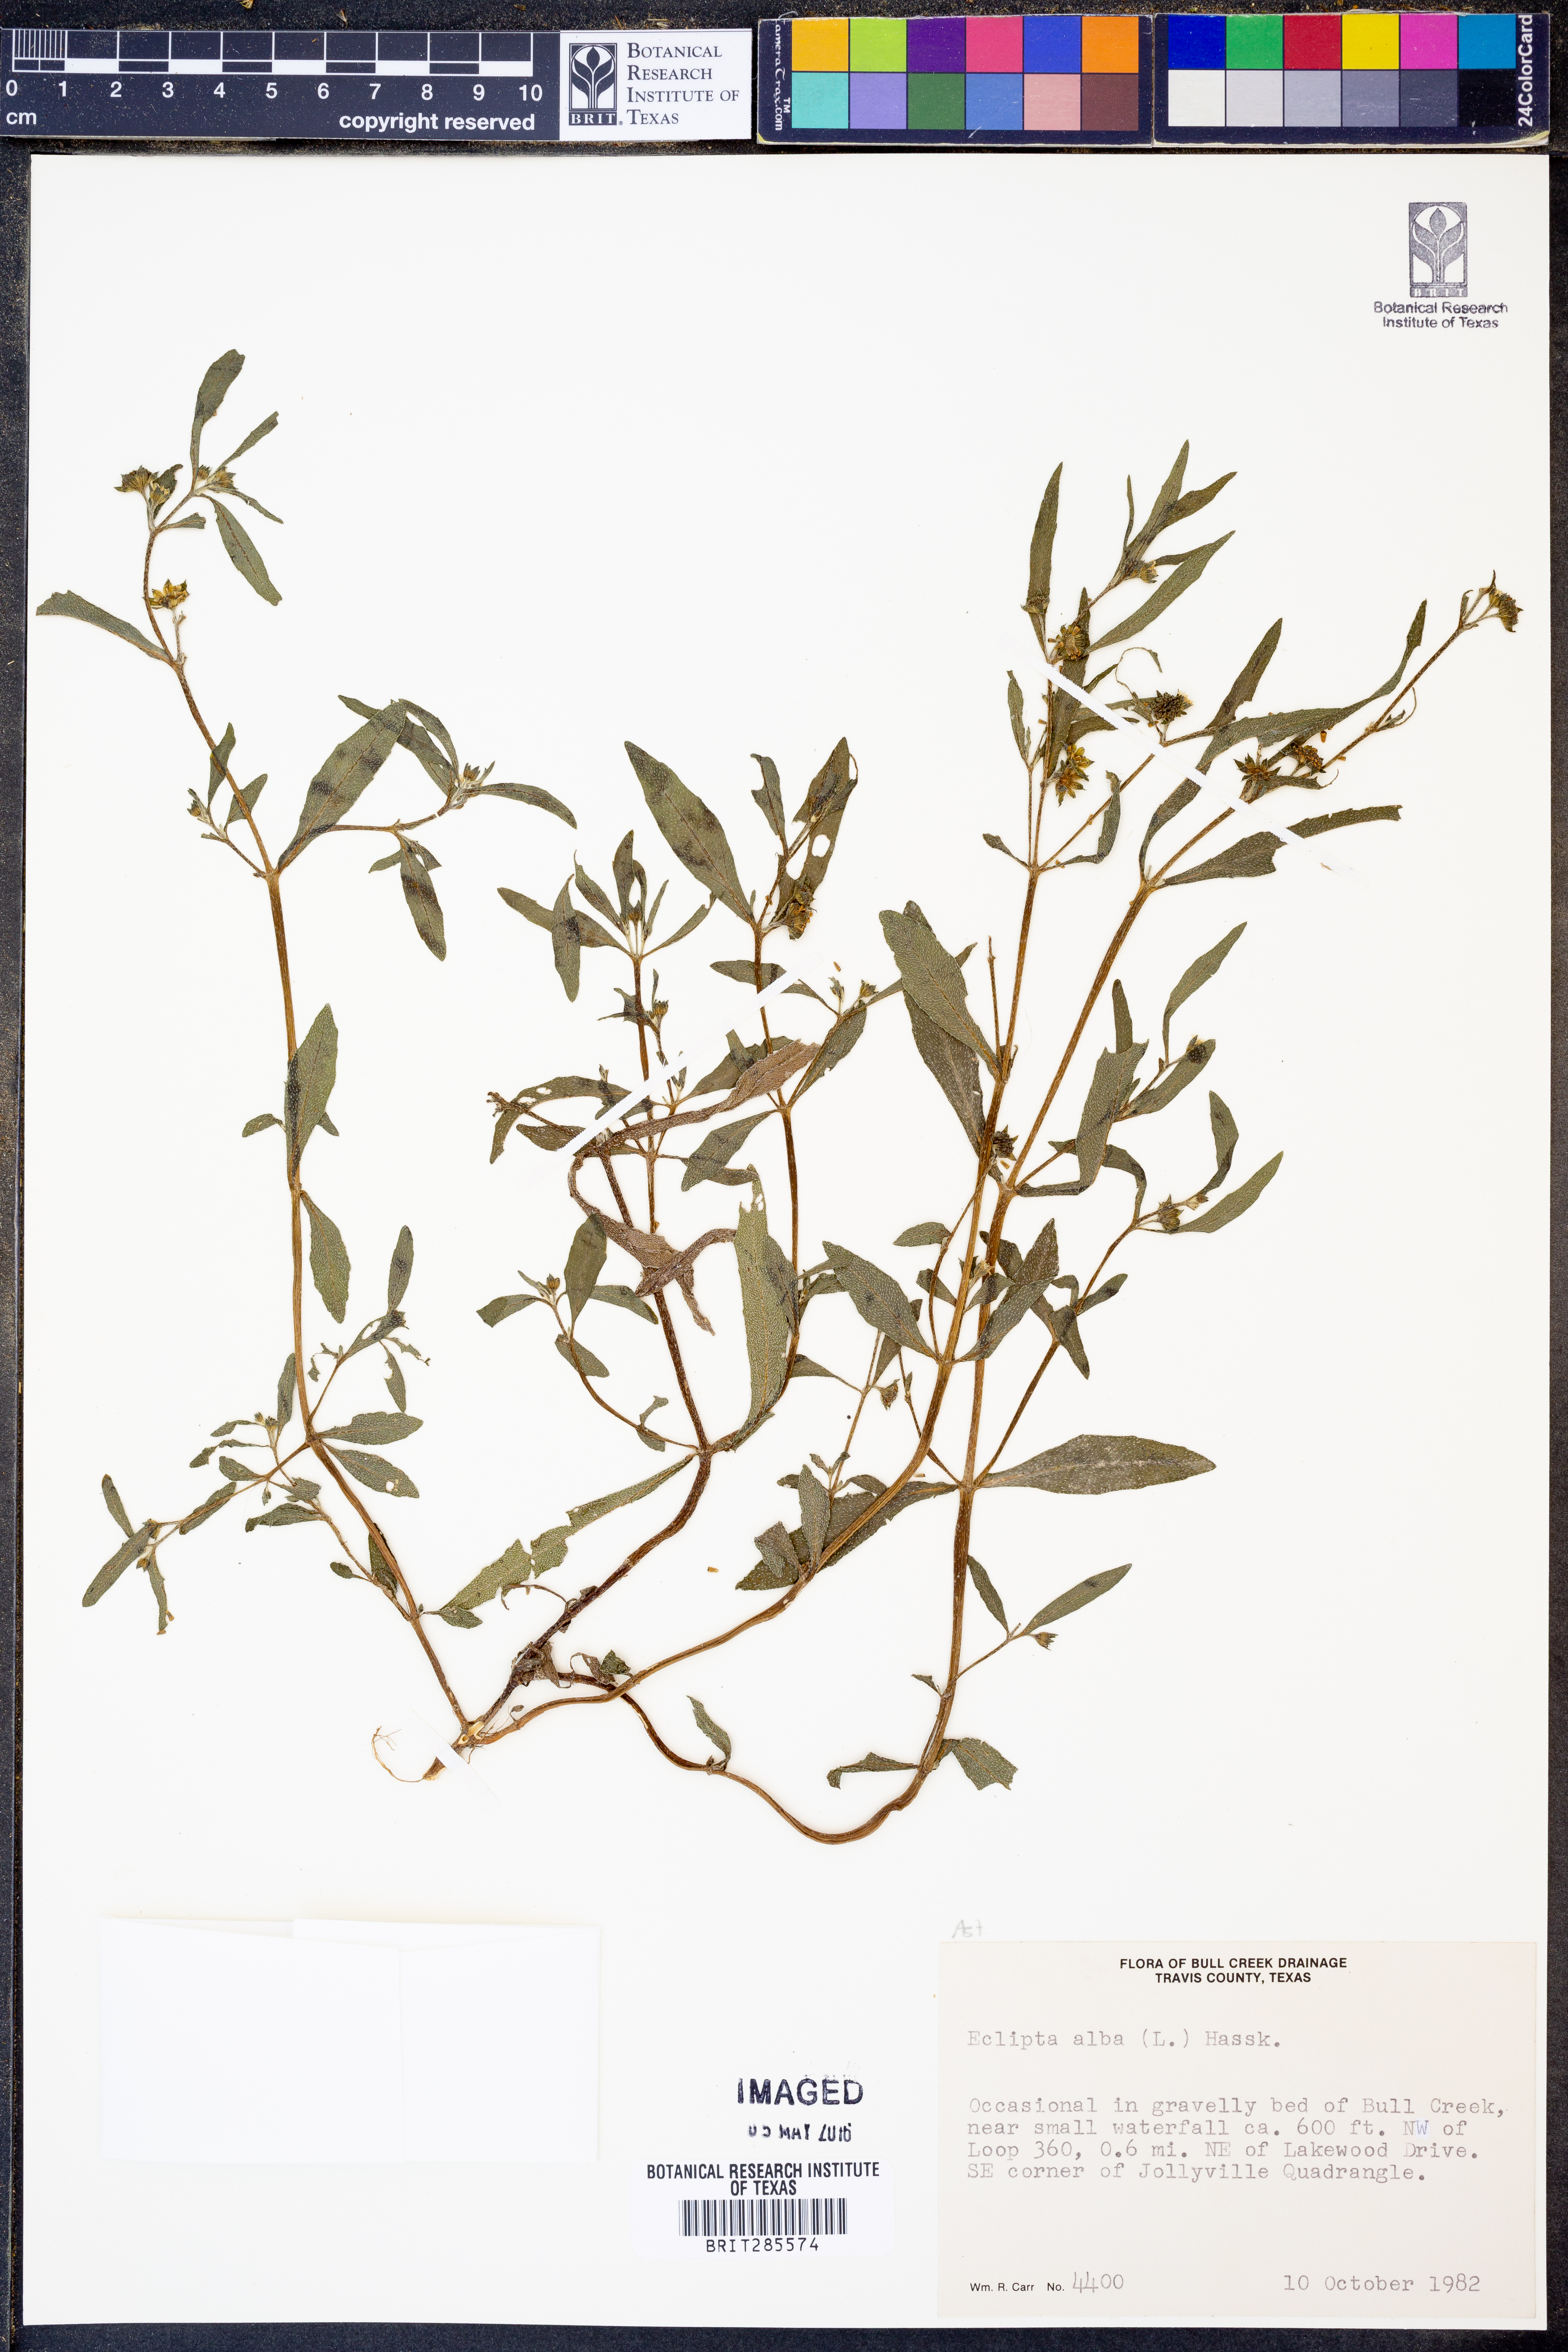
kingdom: Plantae
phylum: Tracheophyta
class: Magnoliopsida
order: Asterales
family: Asteraceae
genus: Eclipta
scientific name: Eclipta alba
